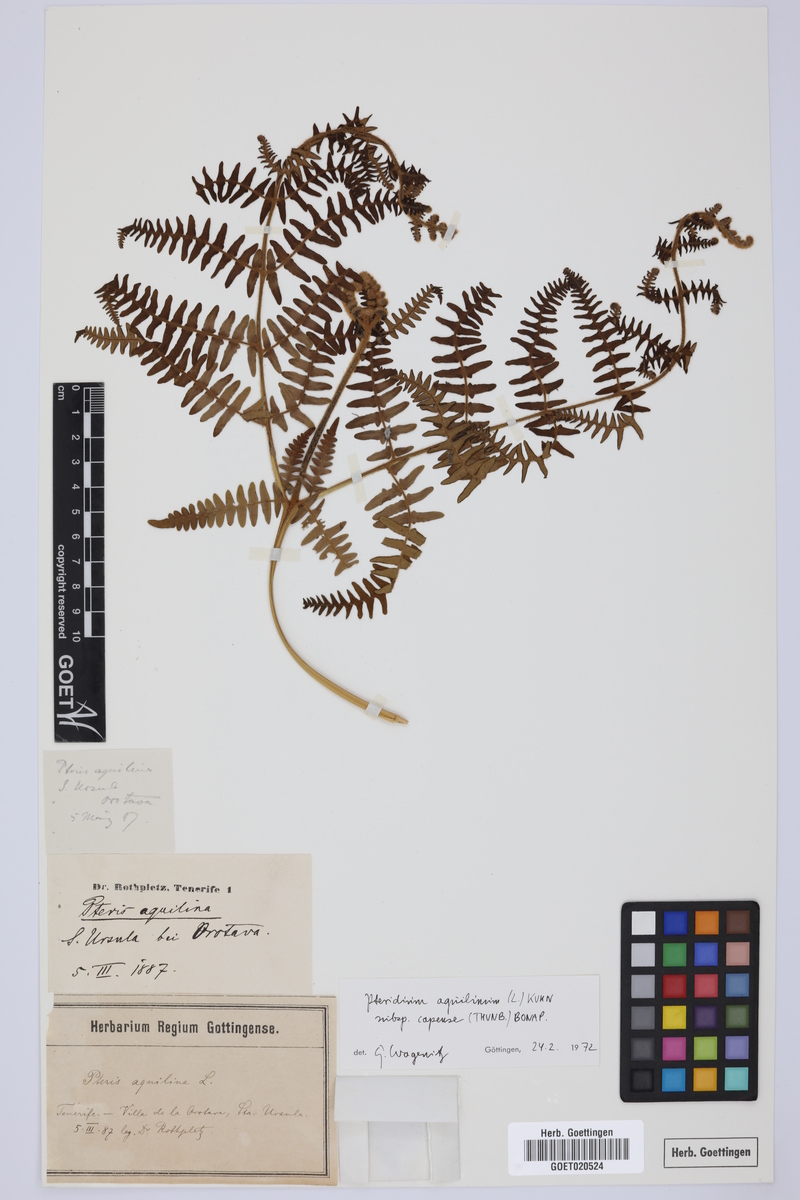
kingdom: Plantae
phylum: Tracheophyta
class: Polypodiopsida
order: Polypodiales
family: Dennstaedtiaceae
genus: Pteridium
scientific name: Pteridium aquilinum
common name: Bracken
